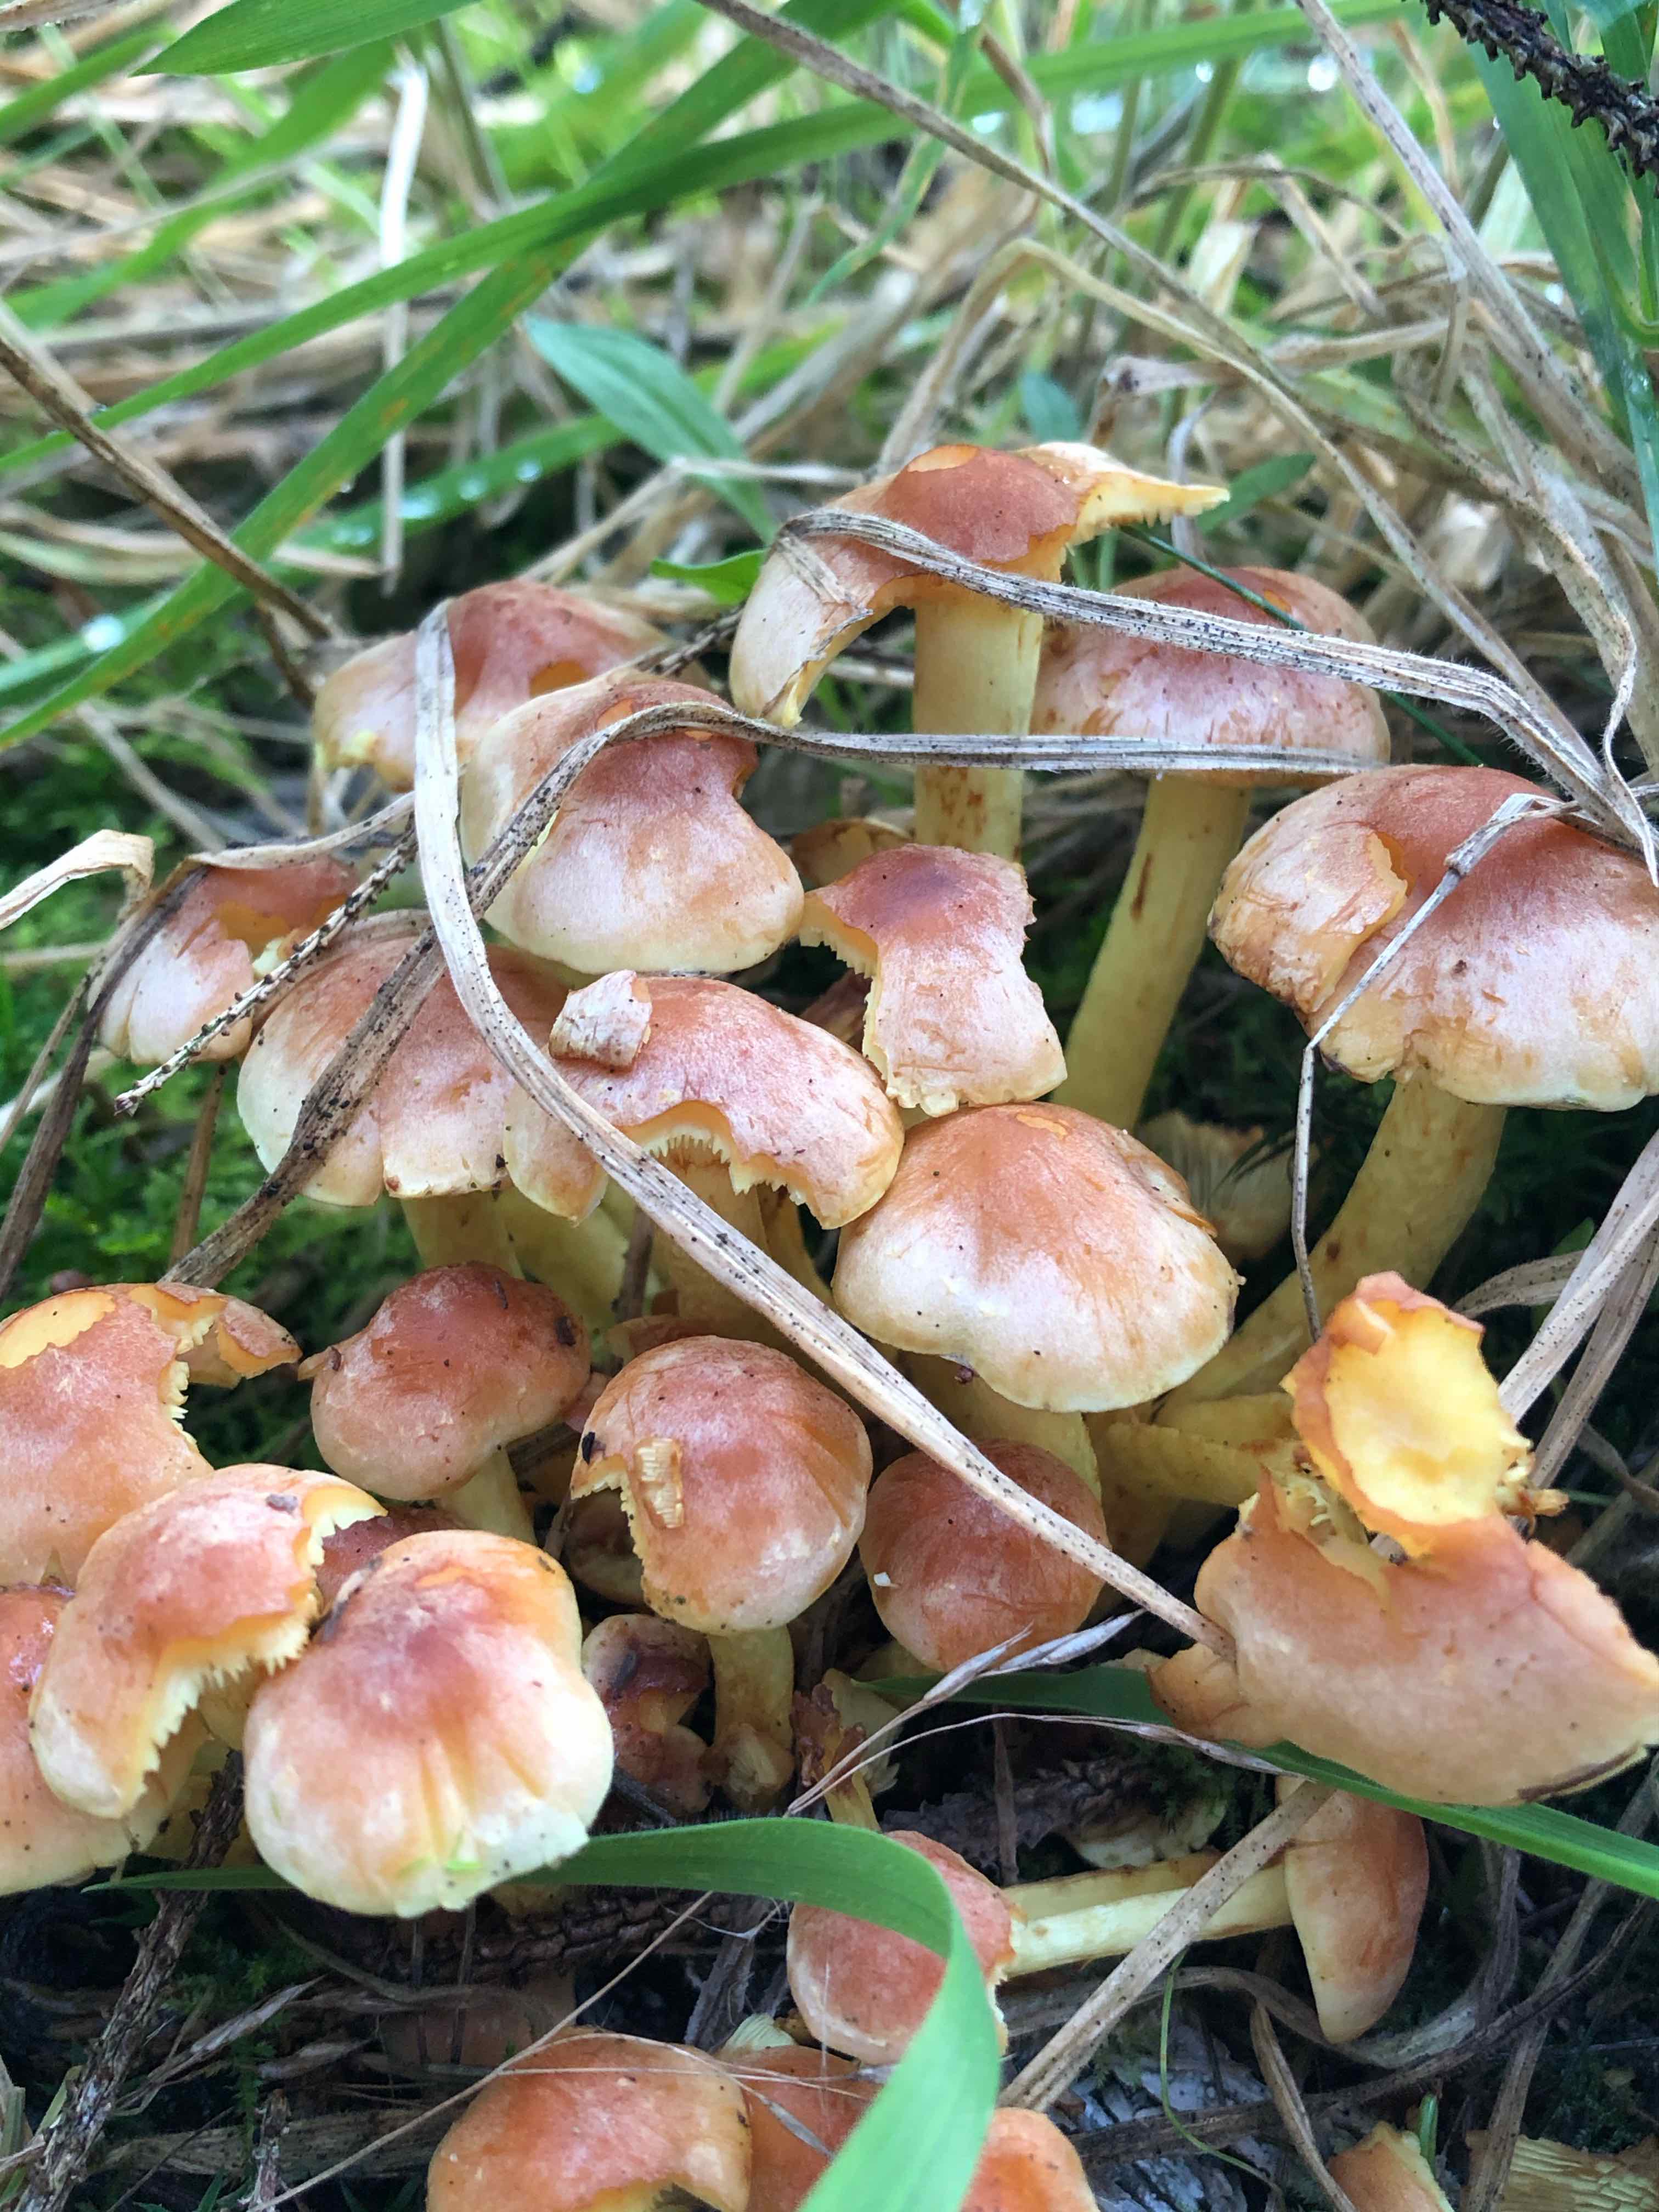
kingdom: Fungi
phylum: Basidiomycota
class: Agaricomycetes
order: Agaricales
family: Strophariaceae
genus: Hypholoma
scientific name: Hypholoma lateritium
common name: teglrød svovlhat
